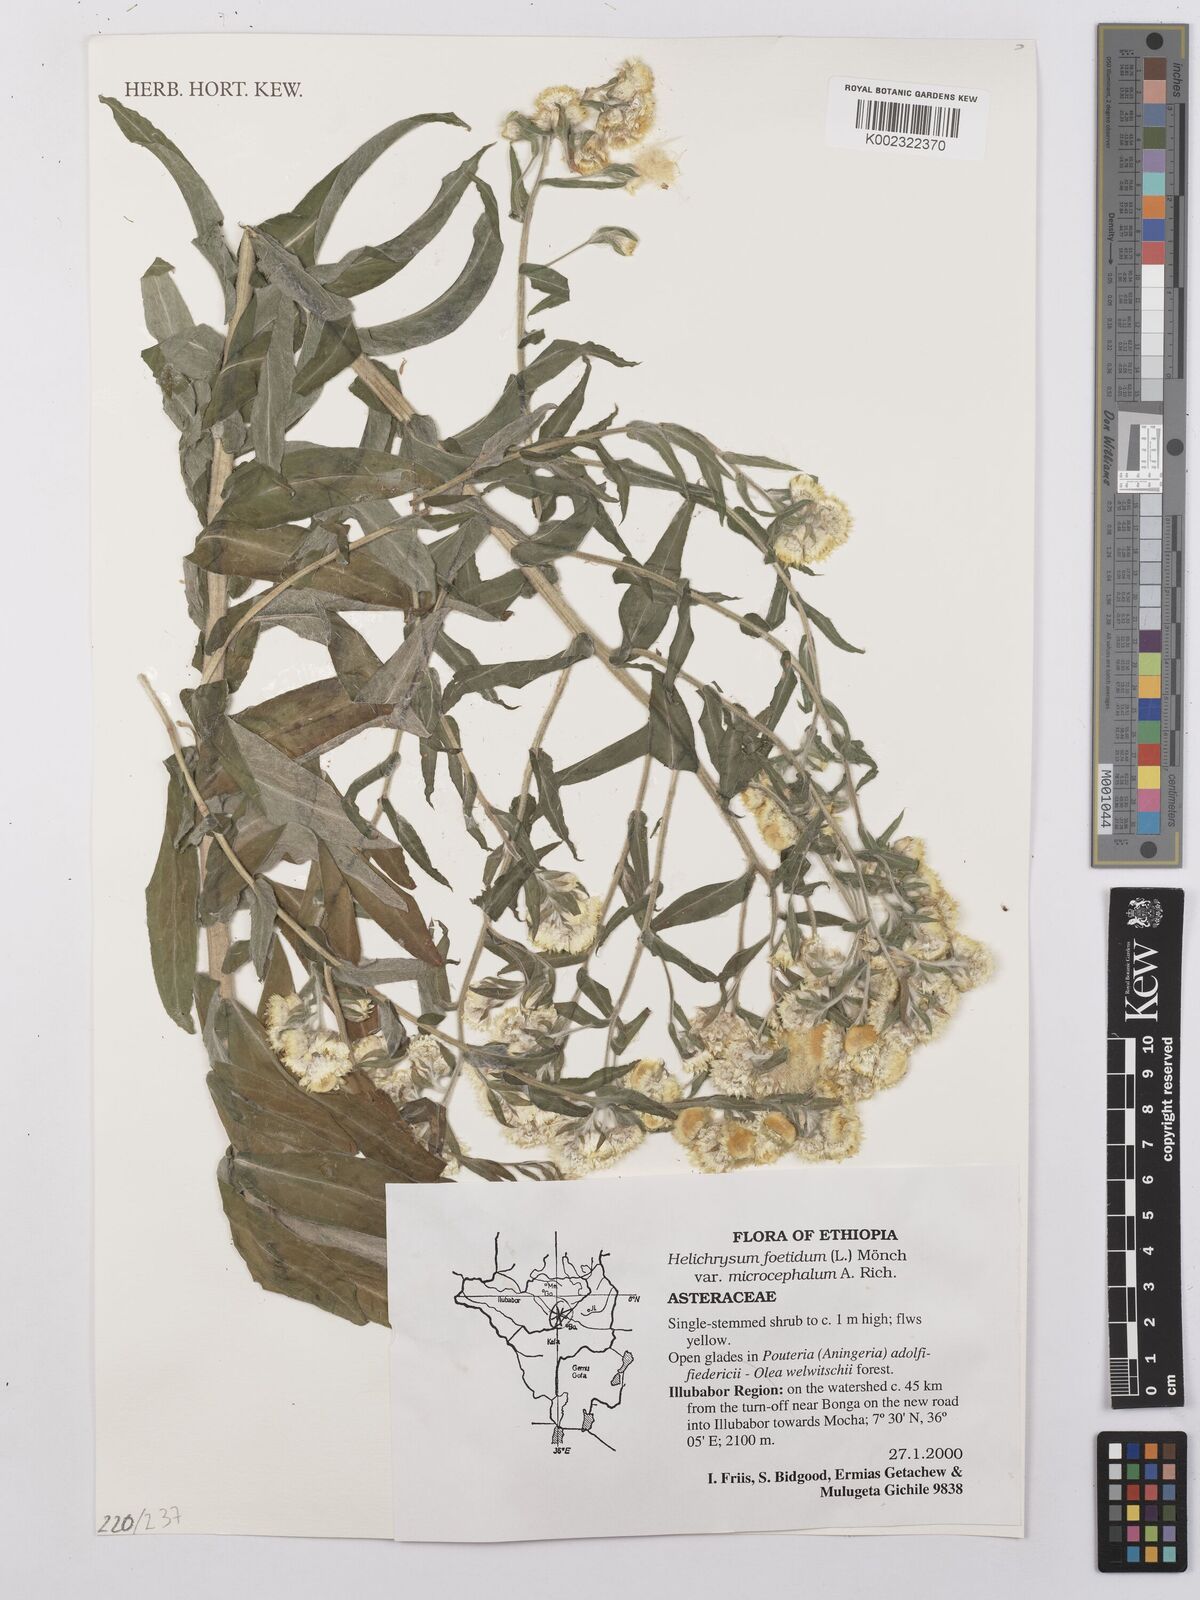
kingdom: Plantae
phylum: Tracheophyta
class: Magnoliopsida
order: Asterales
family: Asteraceae
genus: Helichrysum
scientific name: Helichrysum foetidum
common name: Stinking everlasting
